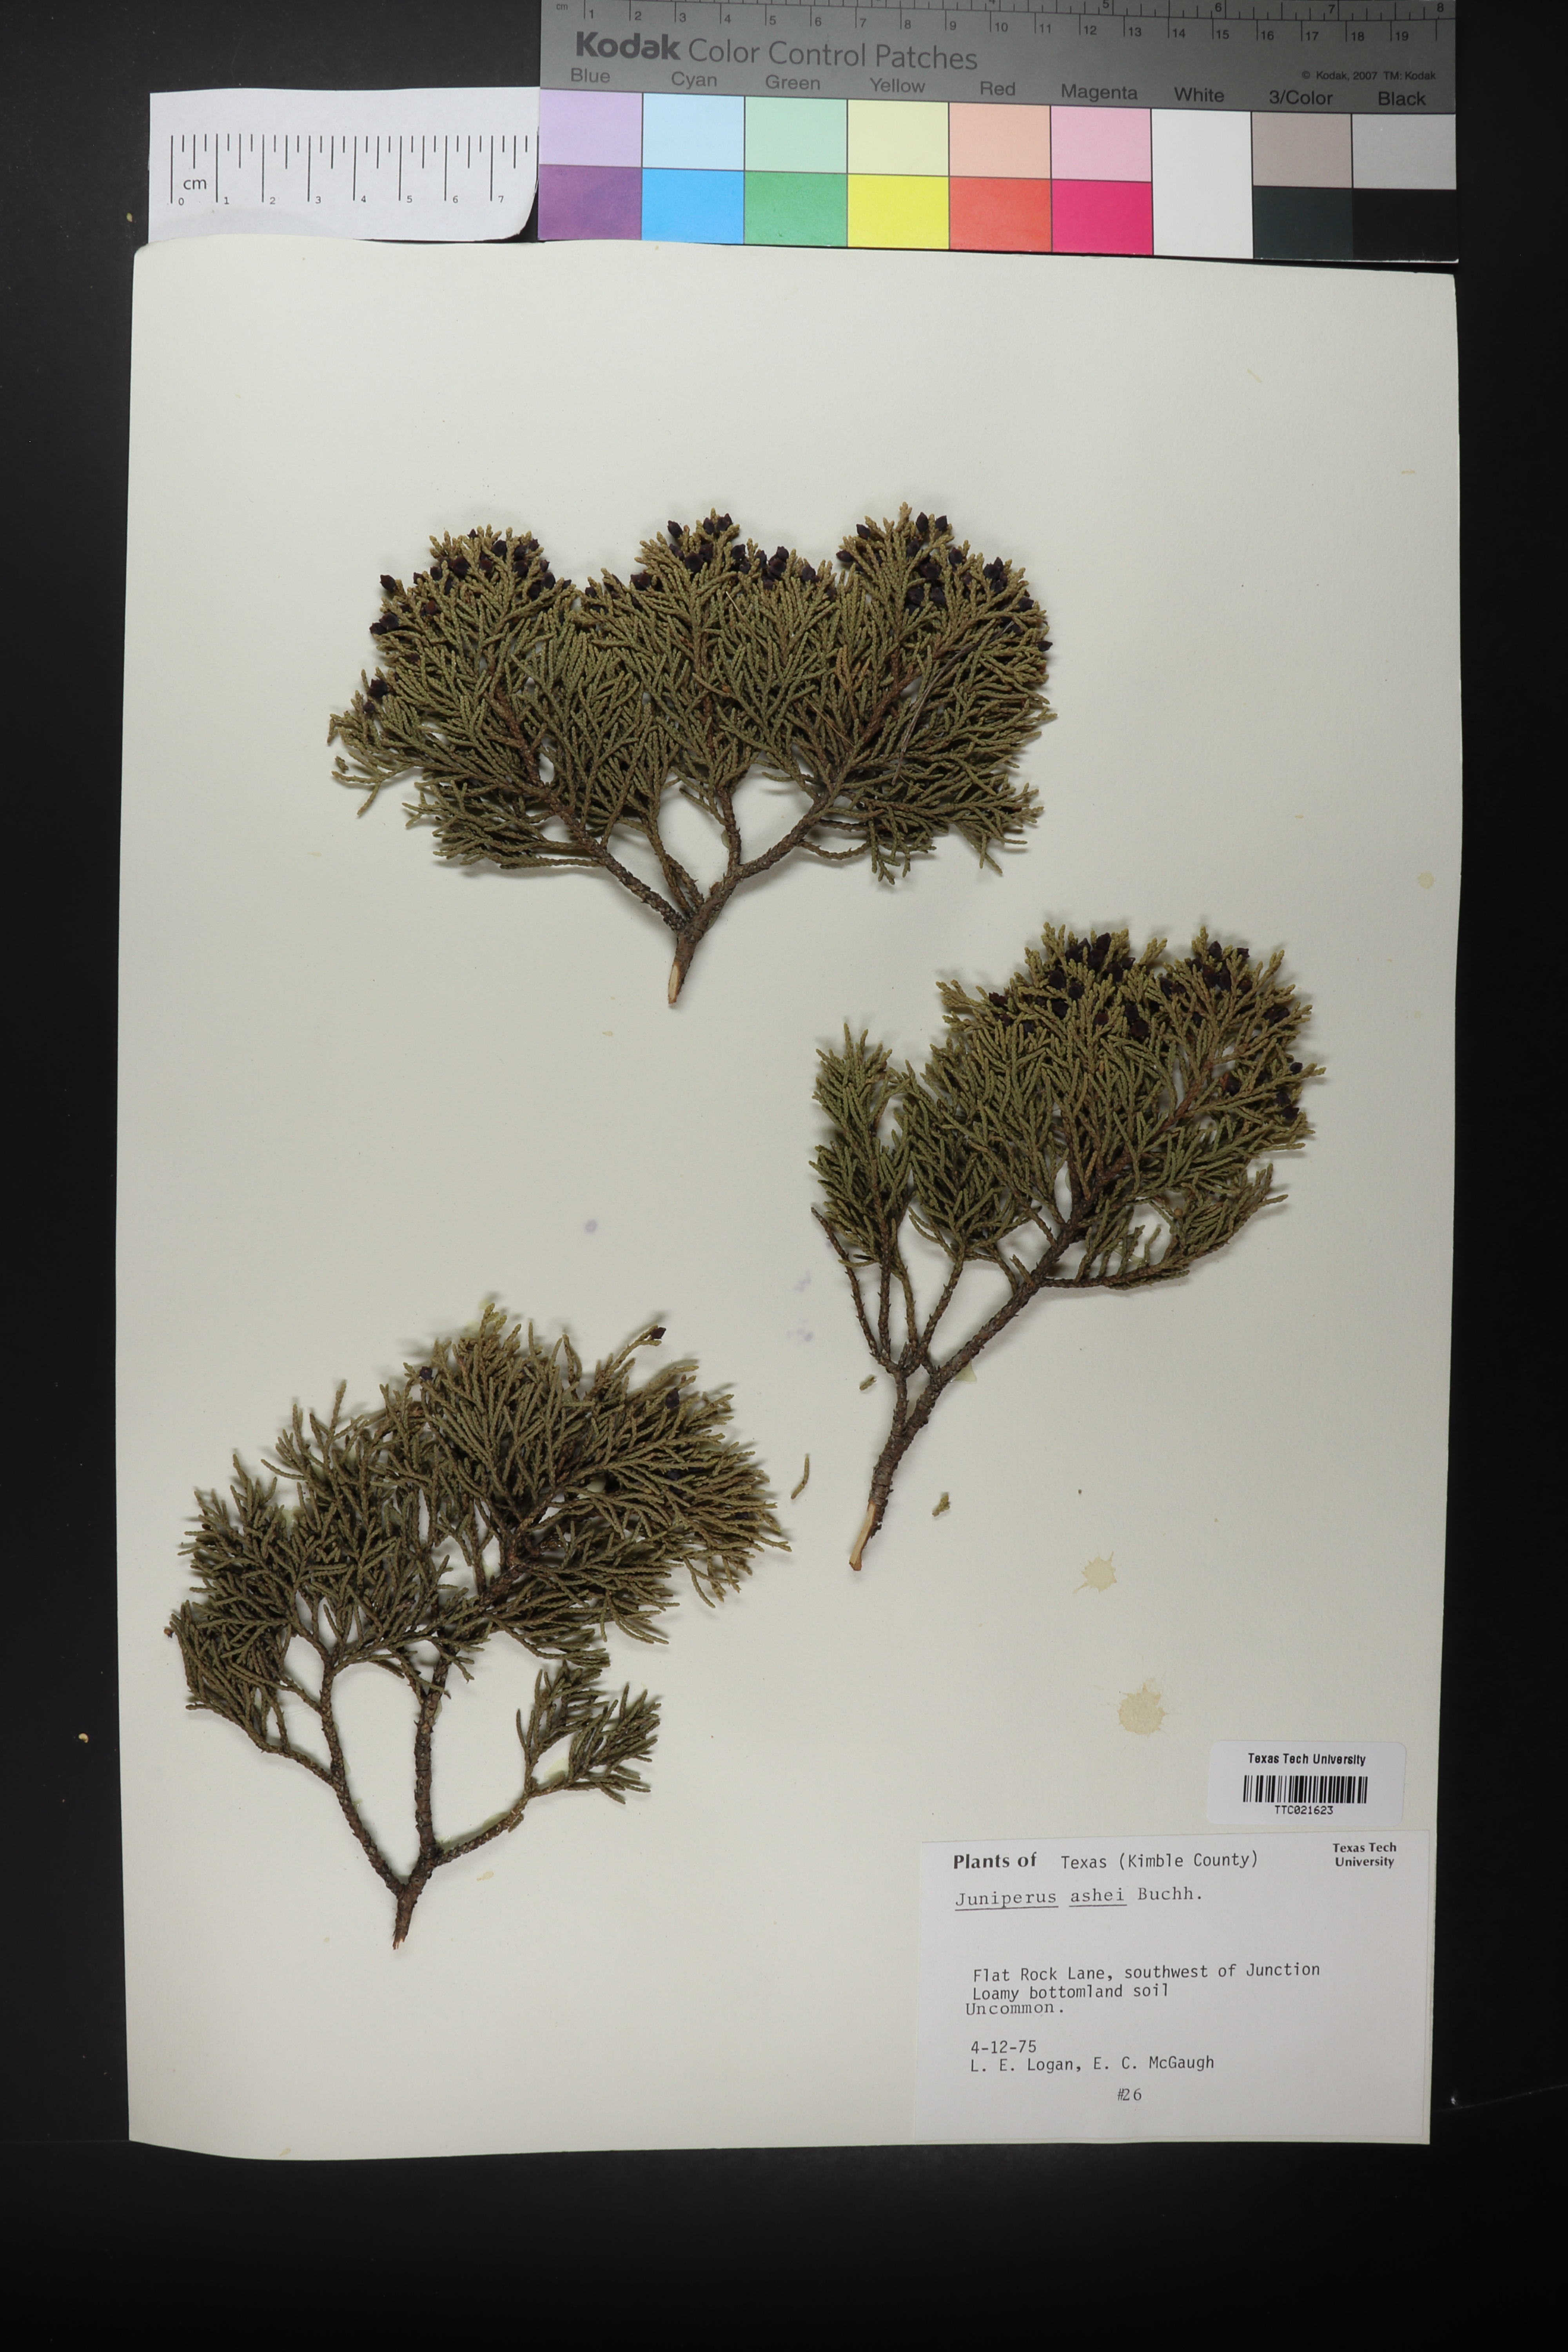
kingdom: Plantae
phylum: Tracheophyta
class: Pinopsida
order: Pinales
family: Cupressaceae
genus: Juniperus
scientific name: Juniperus ashei
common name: Mexican juniper
